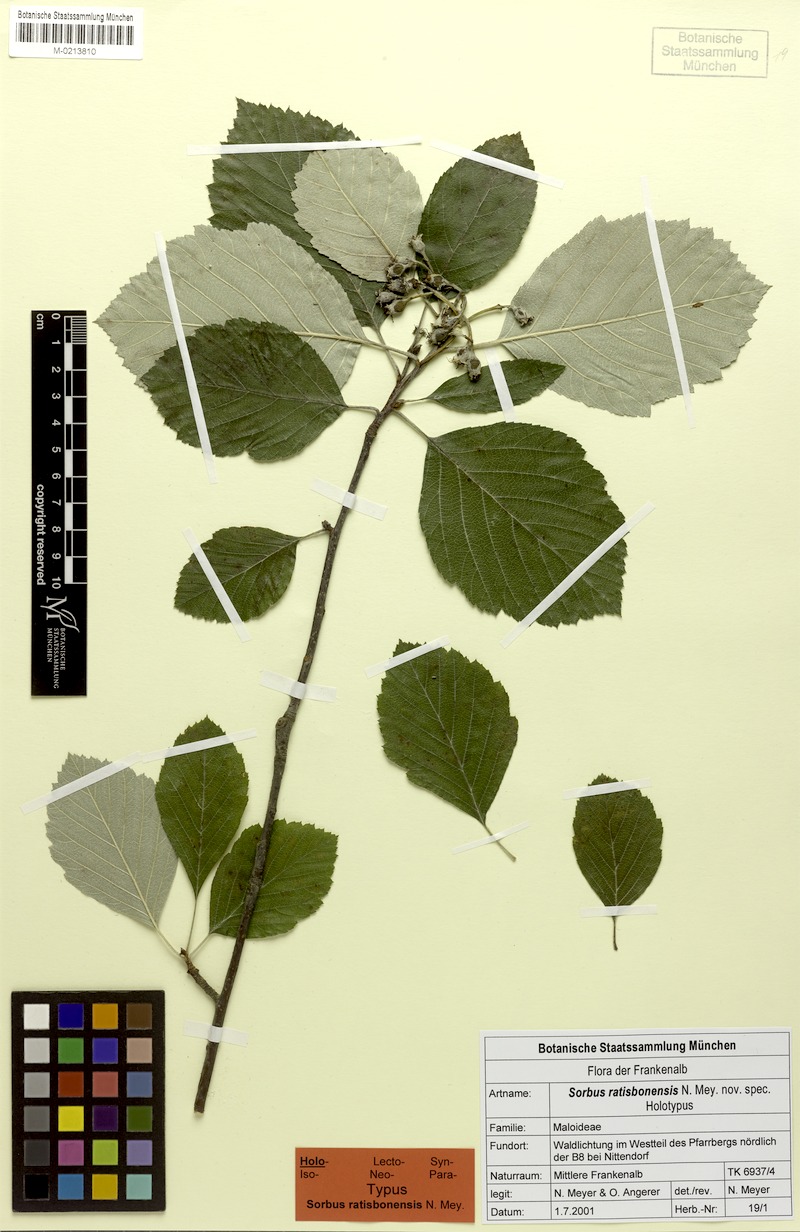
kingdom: Plantae
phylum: Tracheophyta
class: Magnoliopsida
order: Rosales
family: Rosaceae
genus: Karpatiosorbus
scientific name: Karpatiosorbus ratisbonensis
